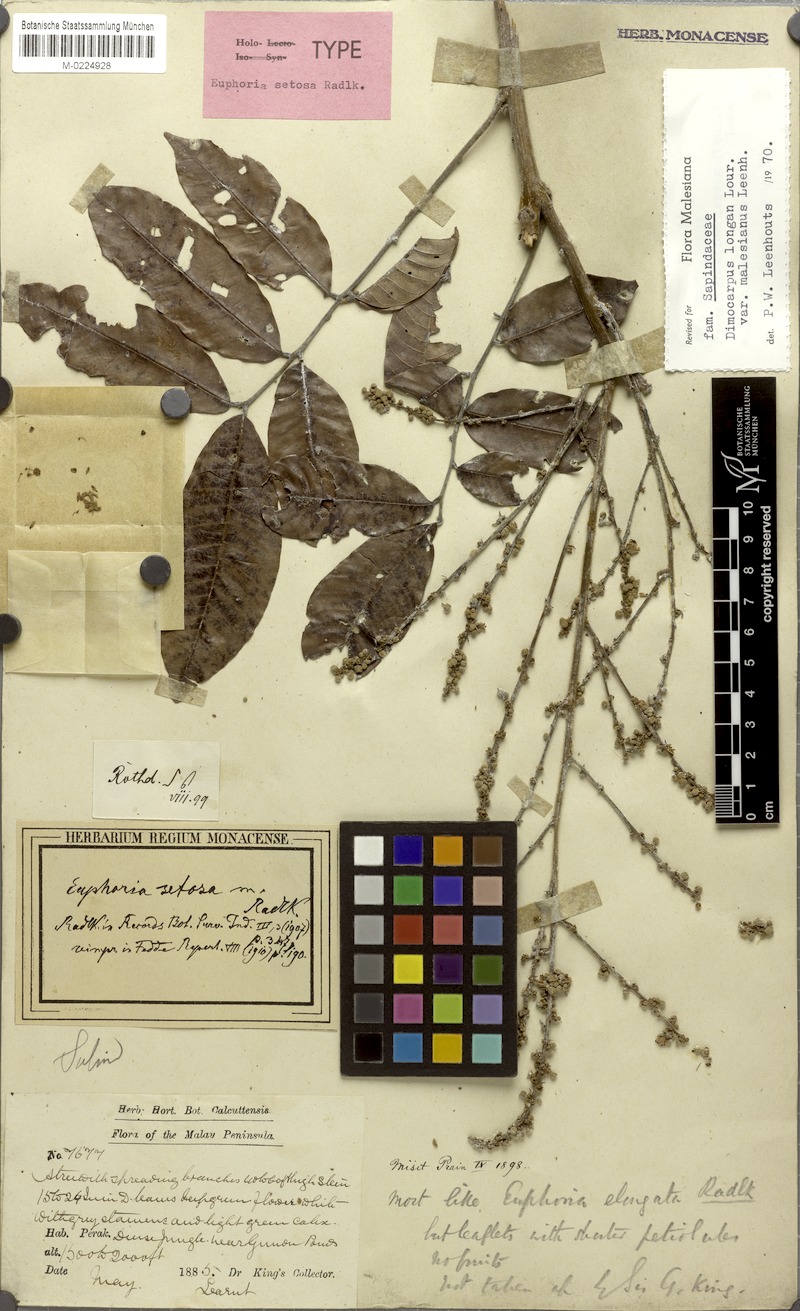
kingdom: Plantae
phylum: Tracheophyta
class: Magnoliopsida
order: Sapindales
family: Sapindaceae
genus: Dimocarpus
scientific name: Dimocarpus malesianus
